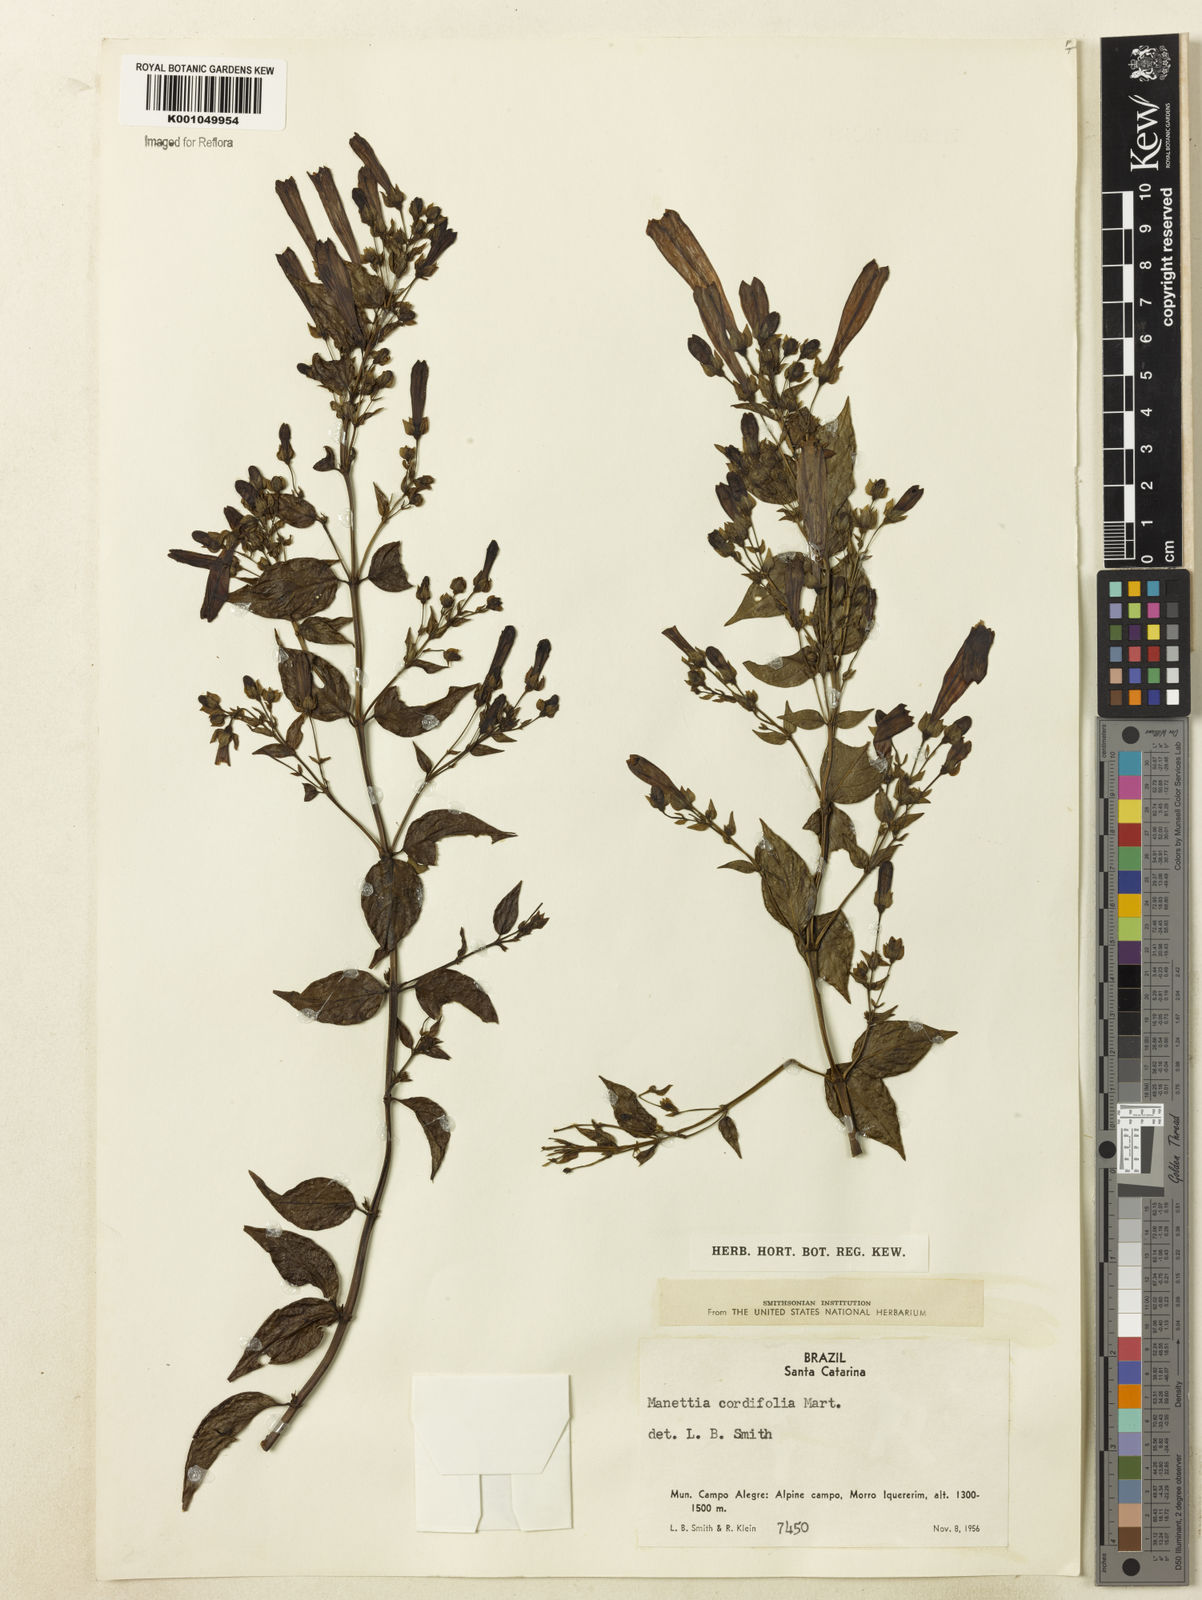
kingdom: Plantae
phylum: Tracheophyta
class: Magnoliopsida
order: Gentianales
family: Rubiaceae
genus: Manettia
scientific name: Manettia cordifolia
